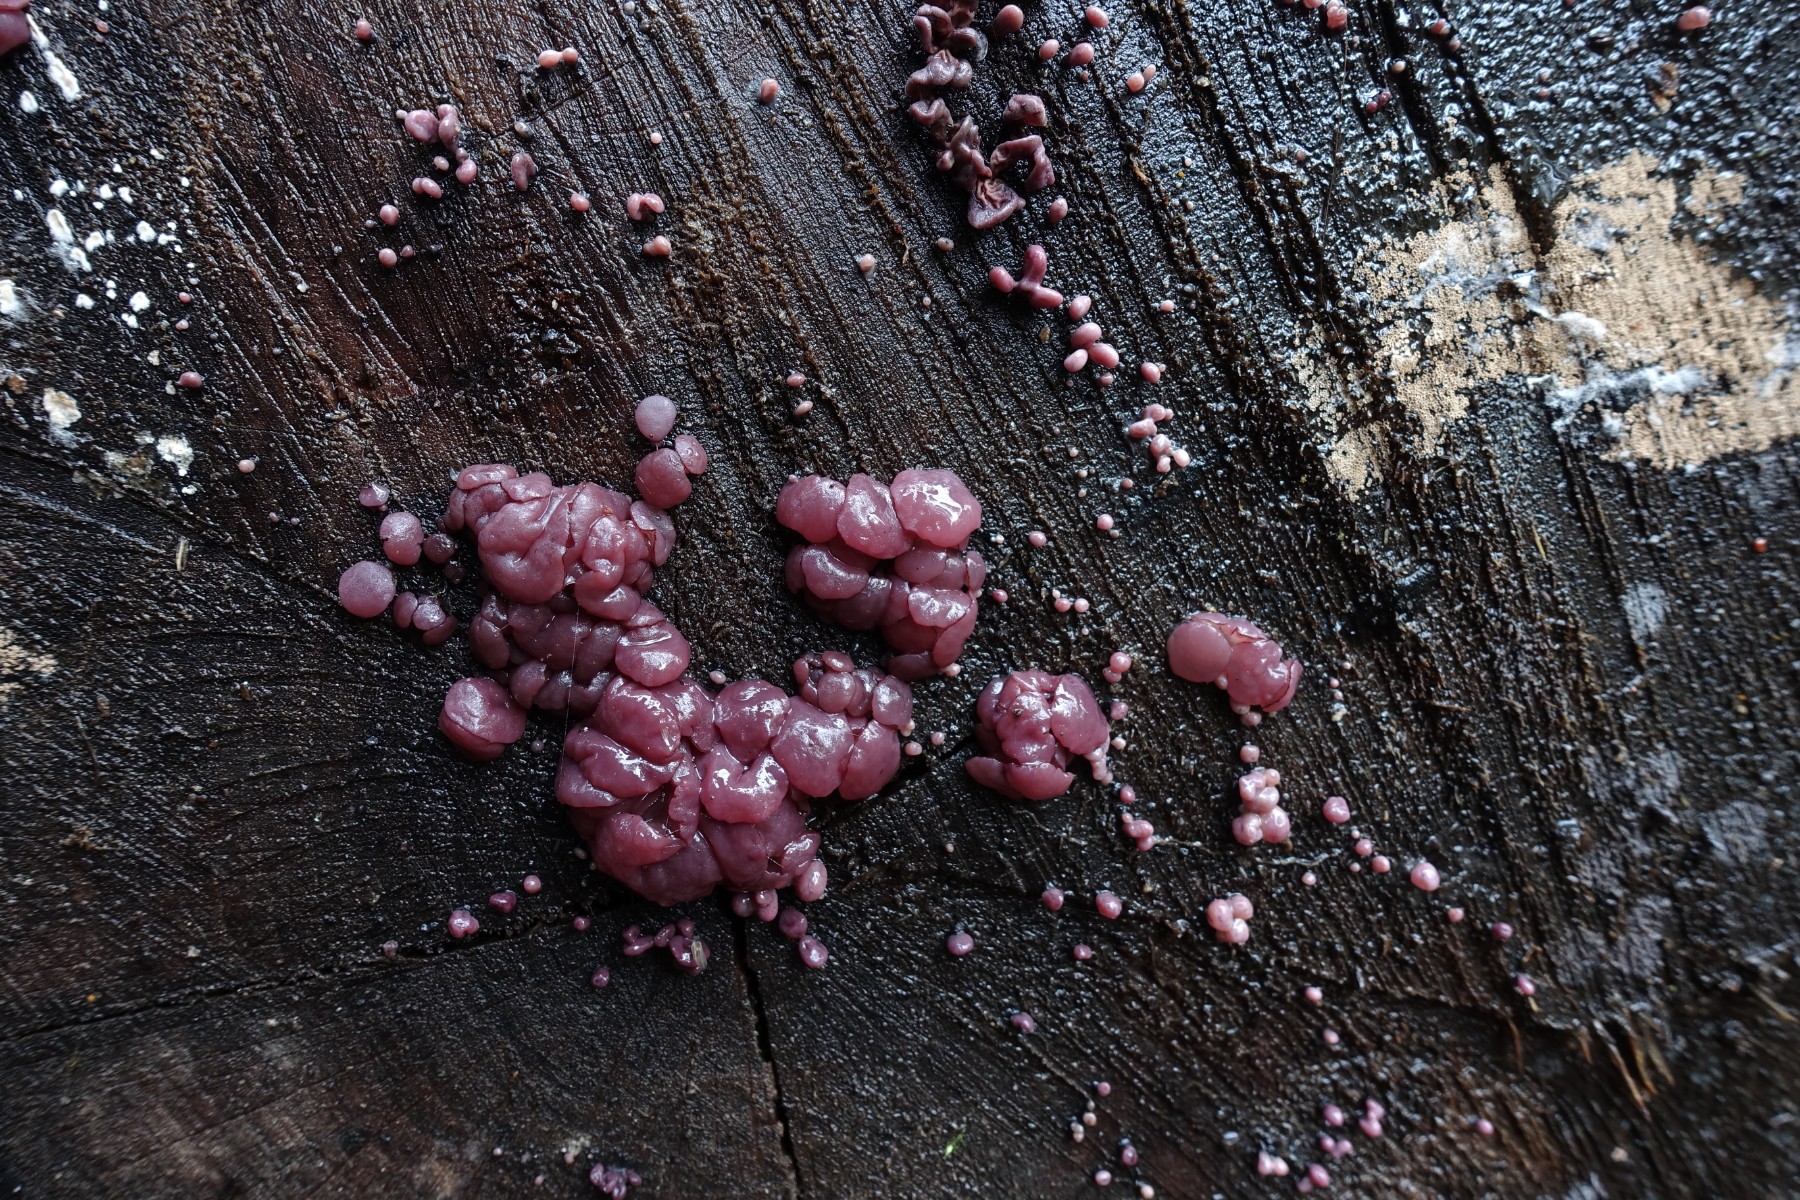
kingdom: Fungi
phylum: Ascomycota
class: Leotiomycetes
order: Helotiales
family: Gelatinodiscaceae
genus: Ascocoryne
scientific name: Ascocoryne sarcoides
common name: rødlilla sejskive
